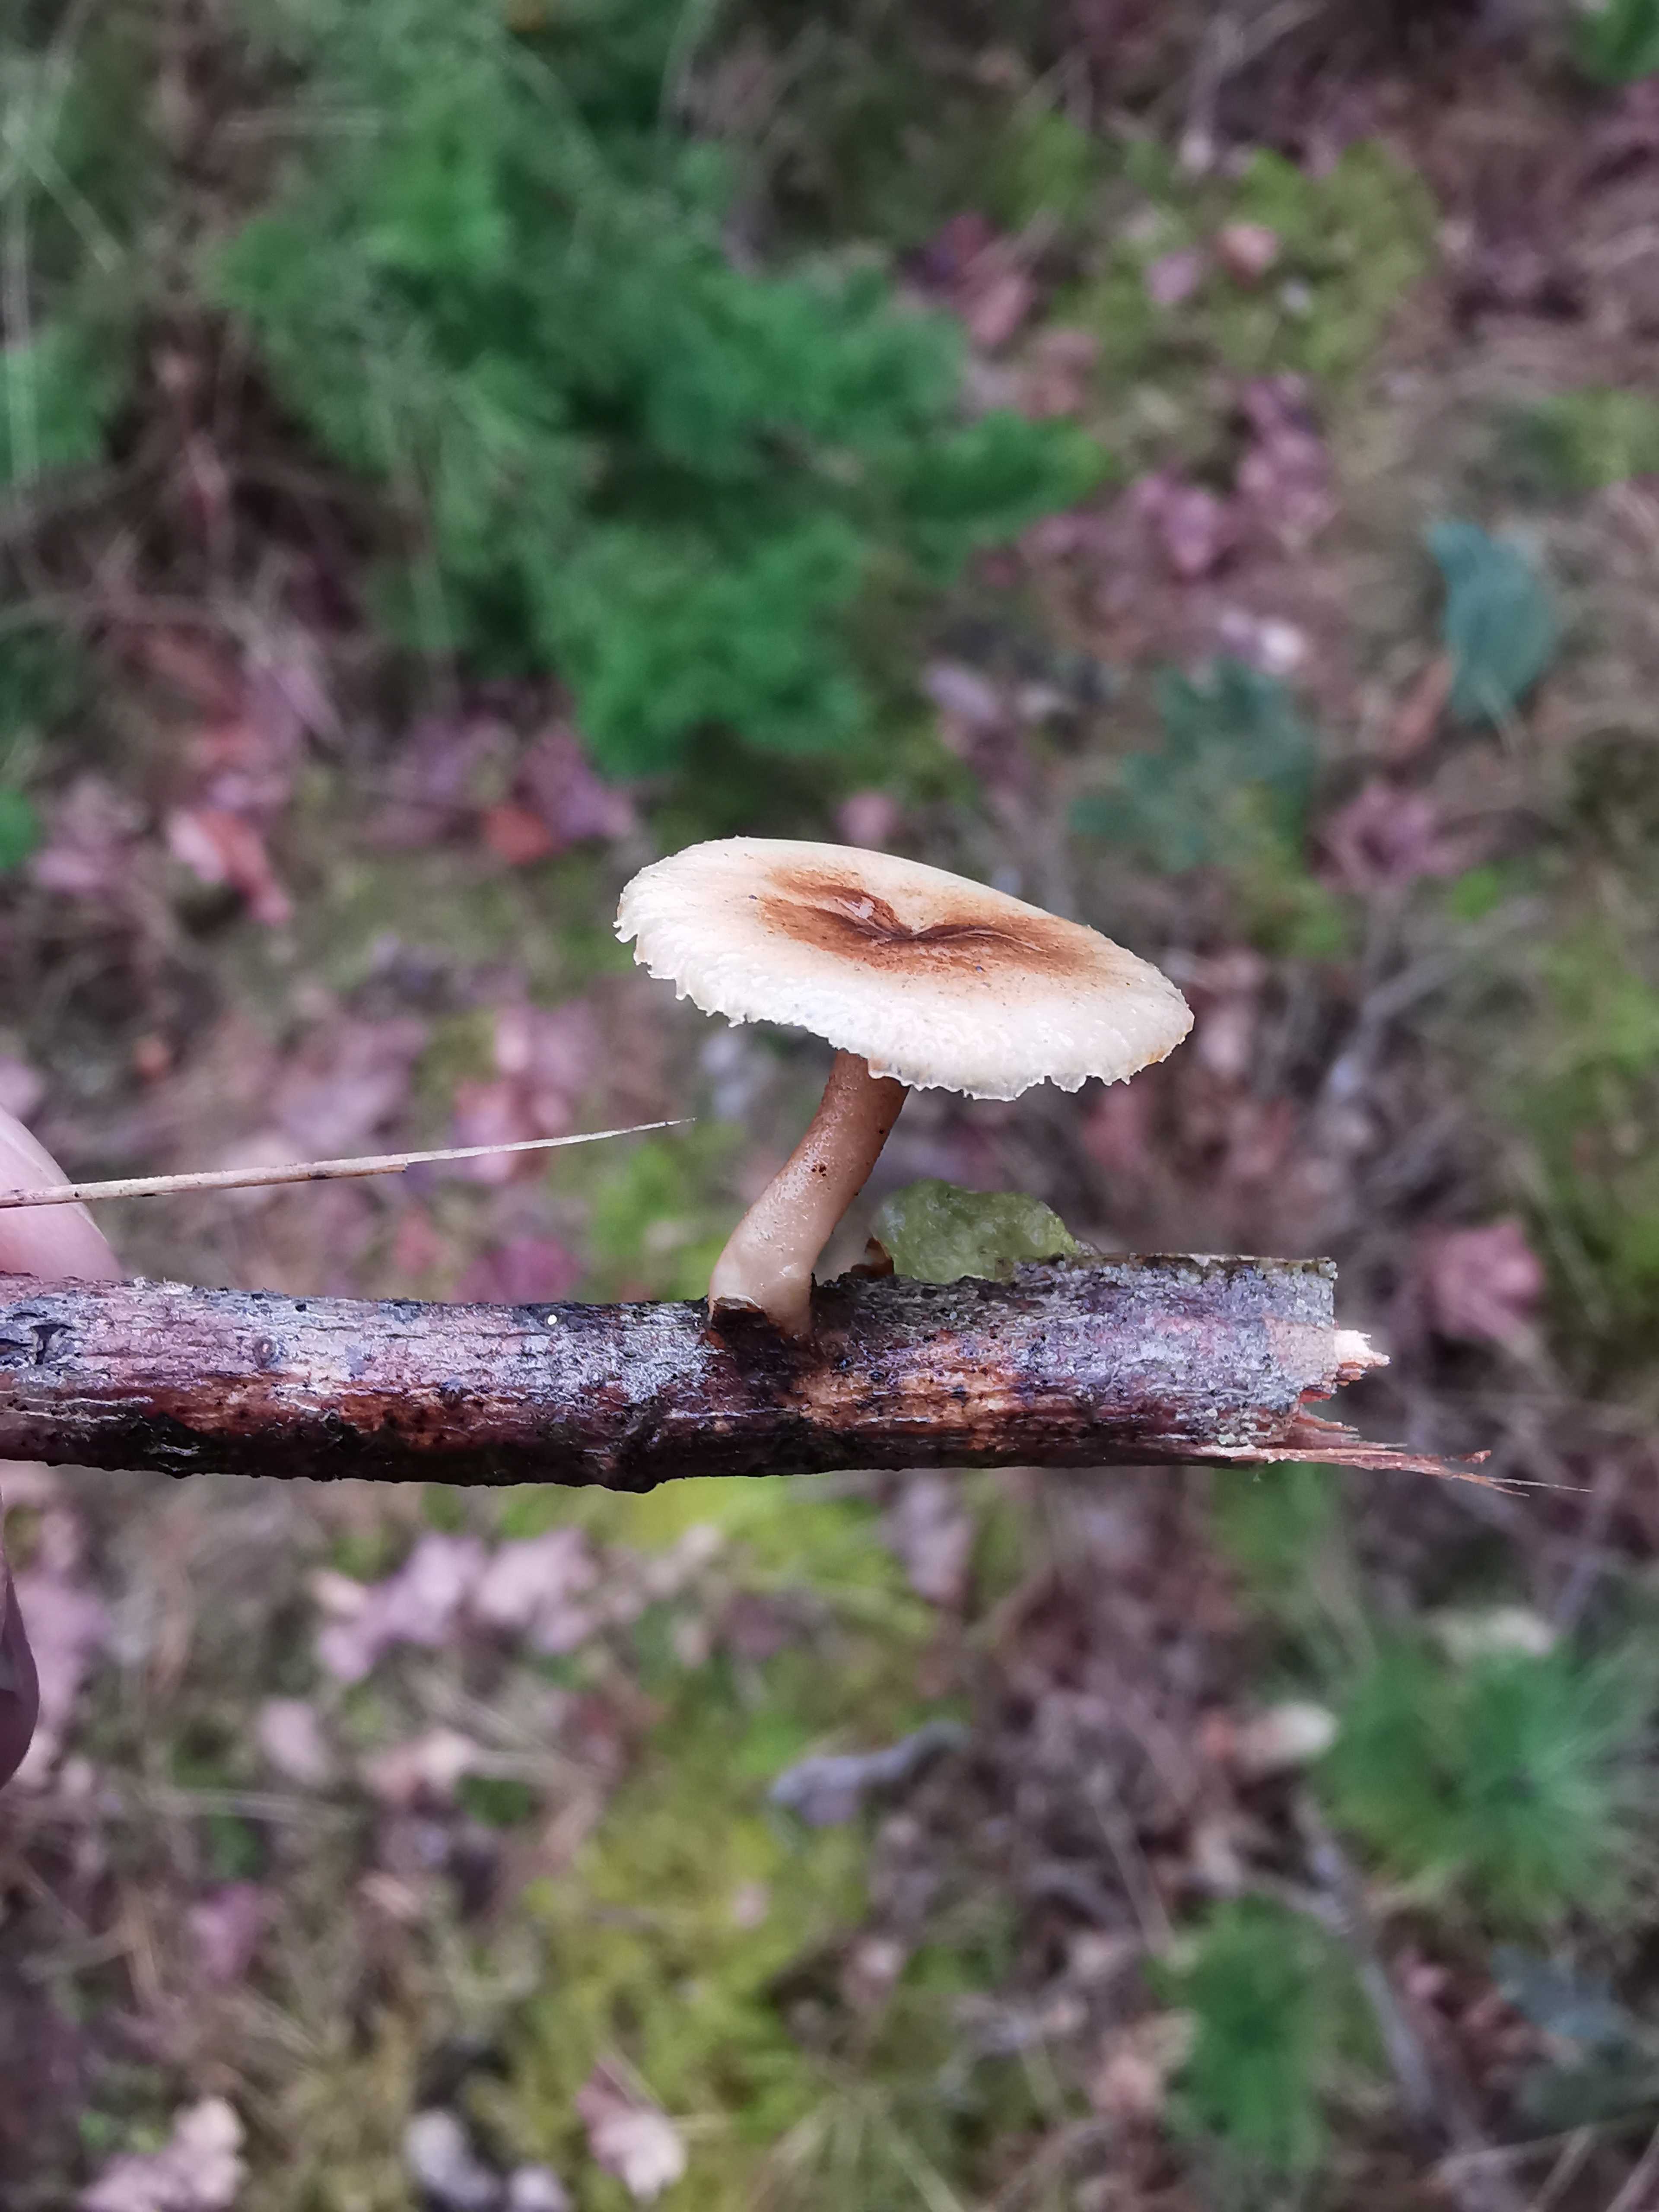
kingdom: Fungi
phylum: Basidiomycota
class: Agaricomycetes
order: Polyporales
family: Polyporaceae
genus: Lentinus
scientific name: Lentinus brumalis
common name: vinter-stilkporesvamp
